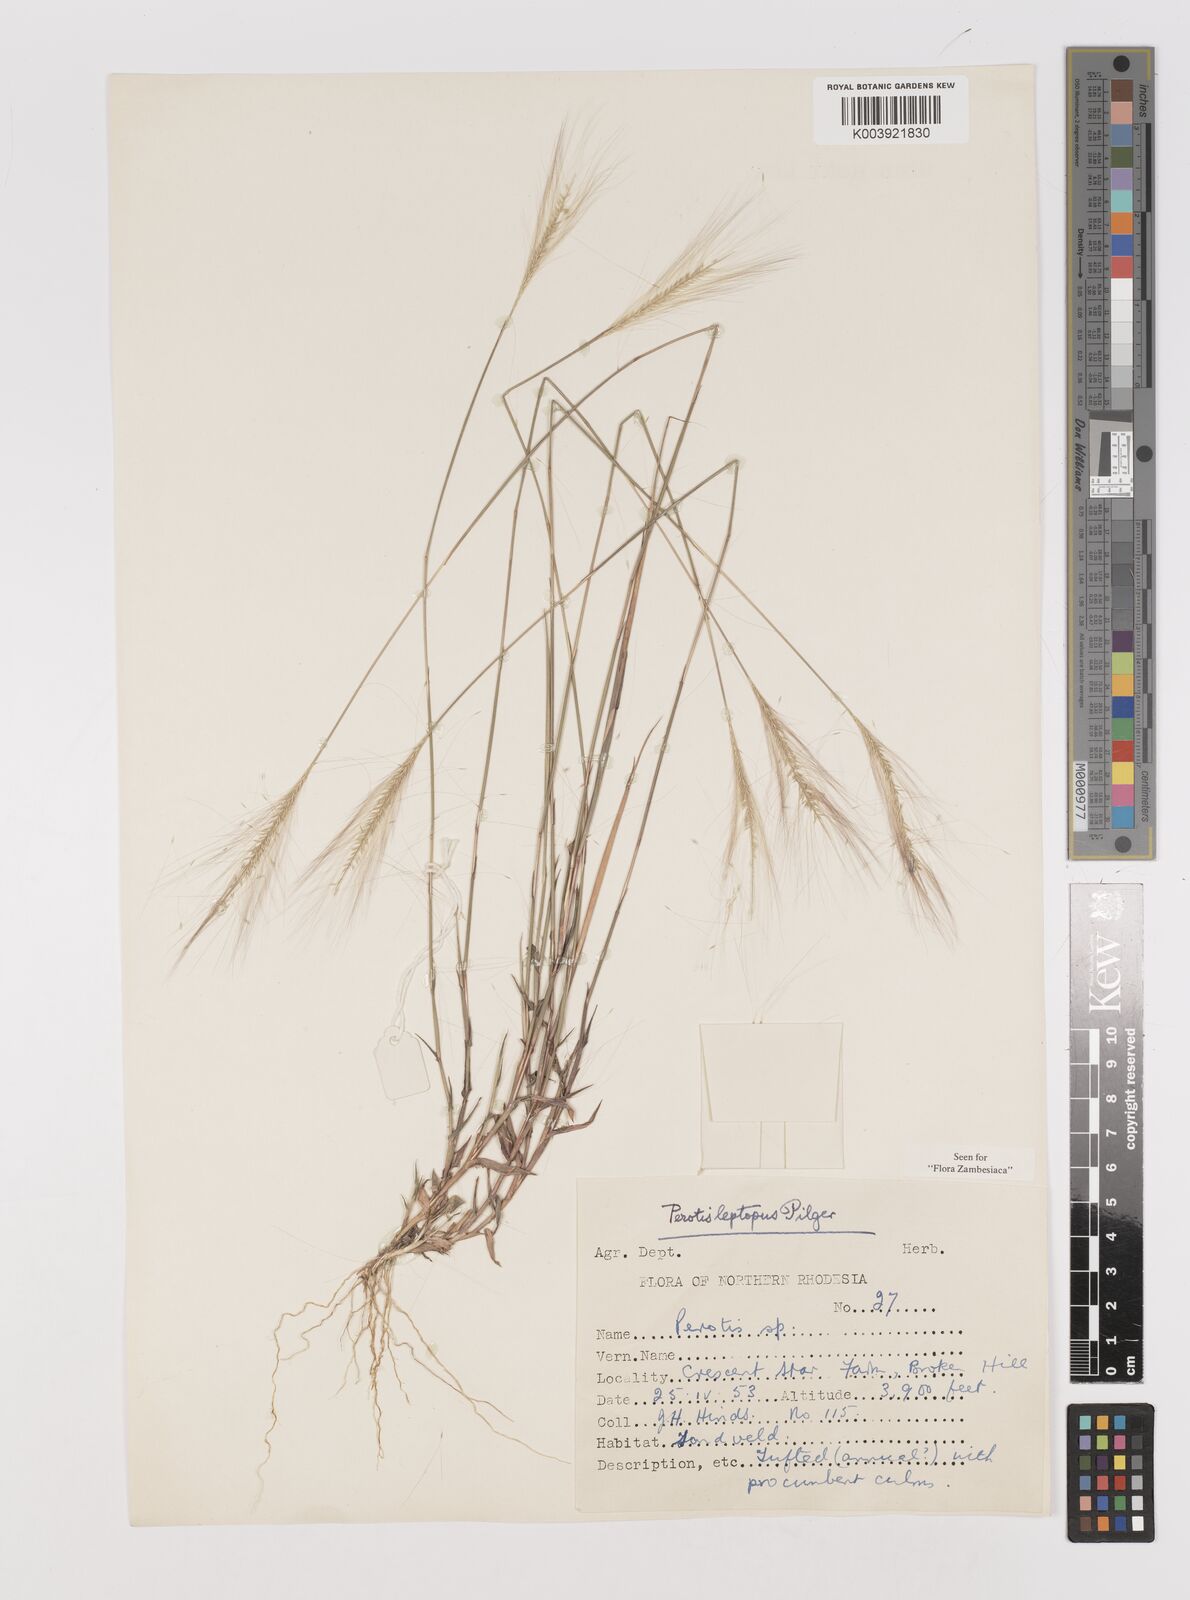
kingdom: Plantae
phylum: Tracheophyta
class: Liliopsida
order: Poales
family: Poaceae
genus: Perotis
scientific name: Perotis leptopus
